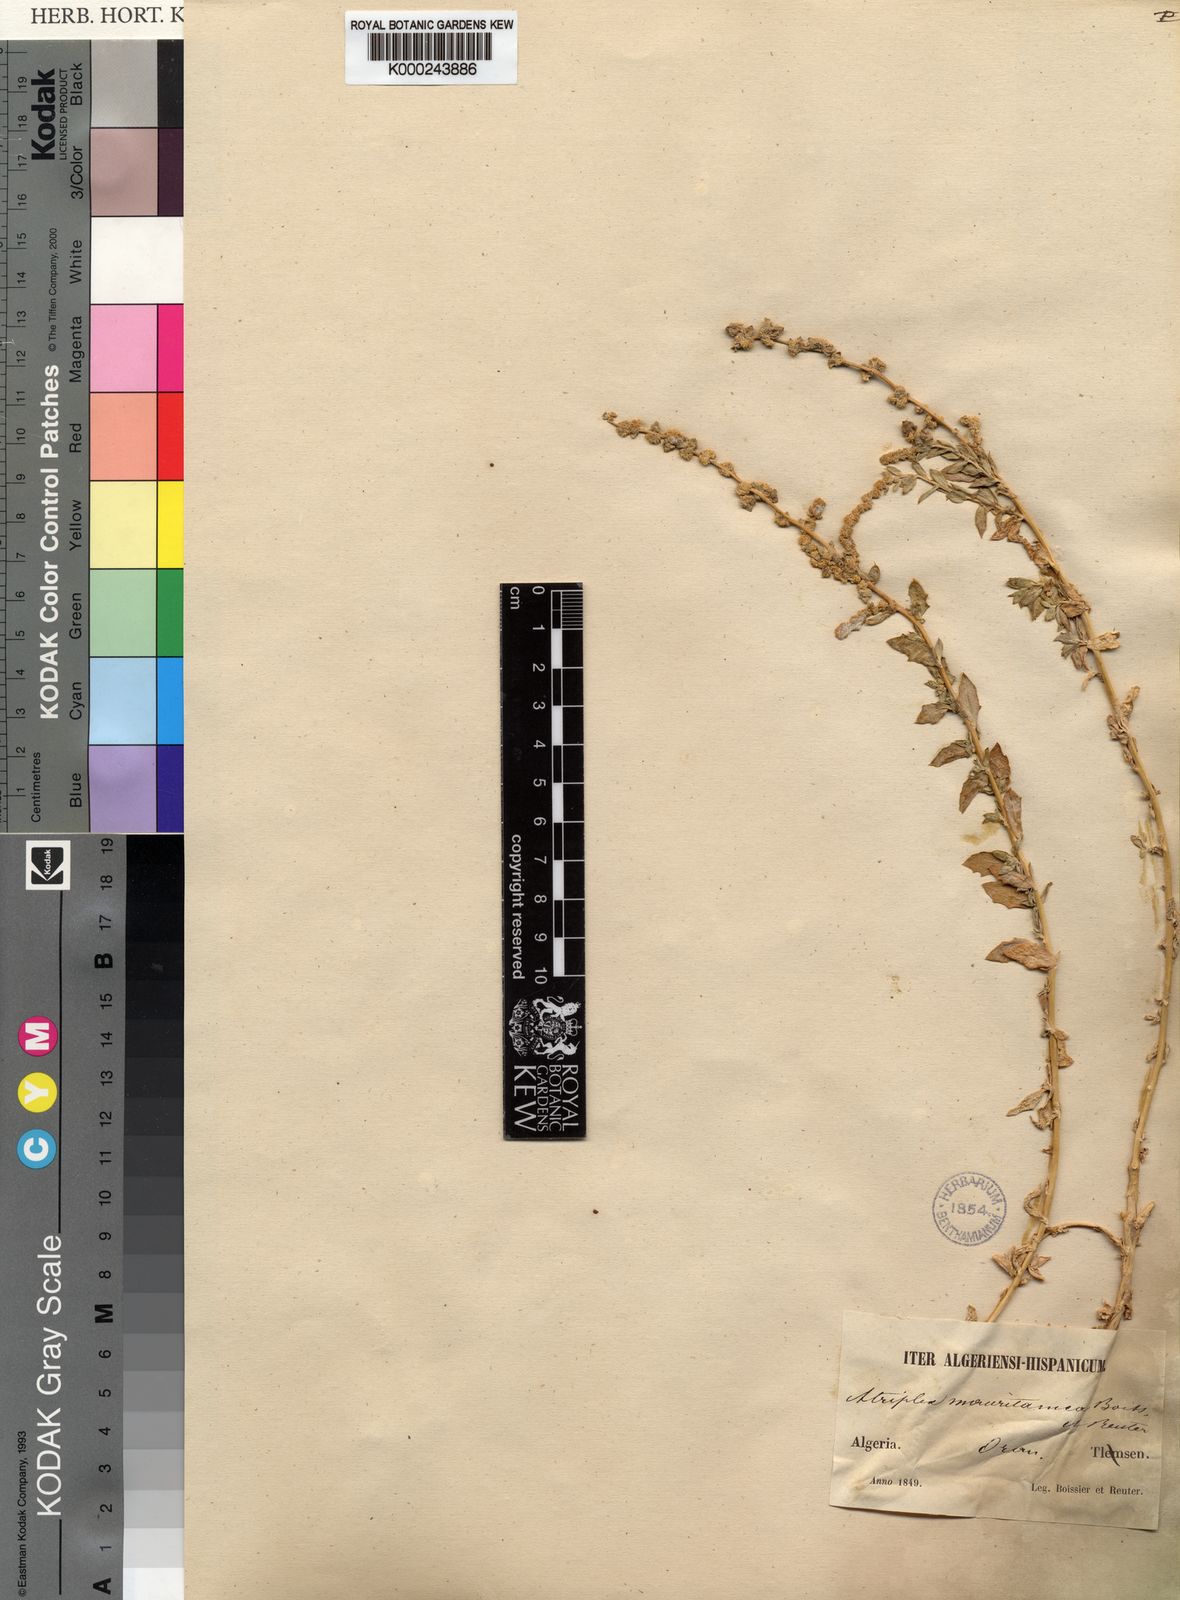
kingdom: Plantae
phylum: Tracheophyta
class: Magnoliopsida
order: Caryophyllales
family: Amaranthaceae
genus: Atriplex
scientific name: Atriplex glauca
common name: Waxy saltbush
